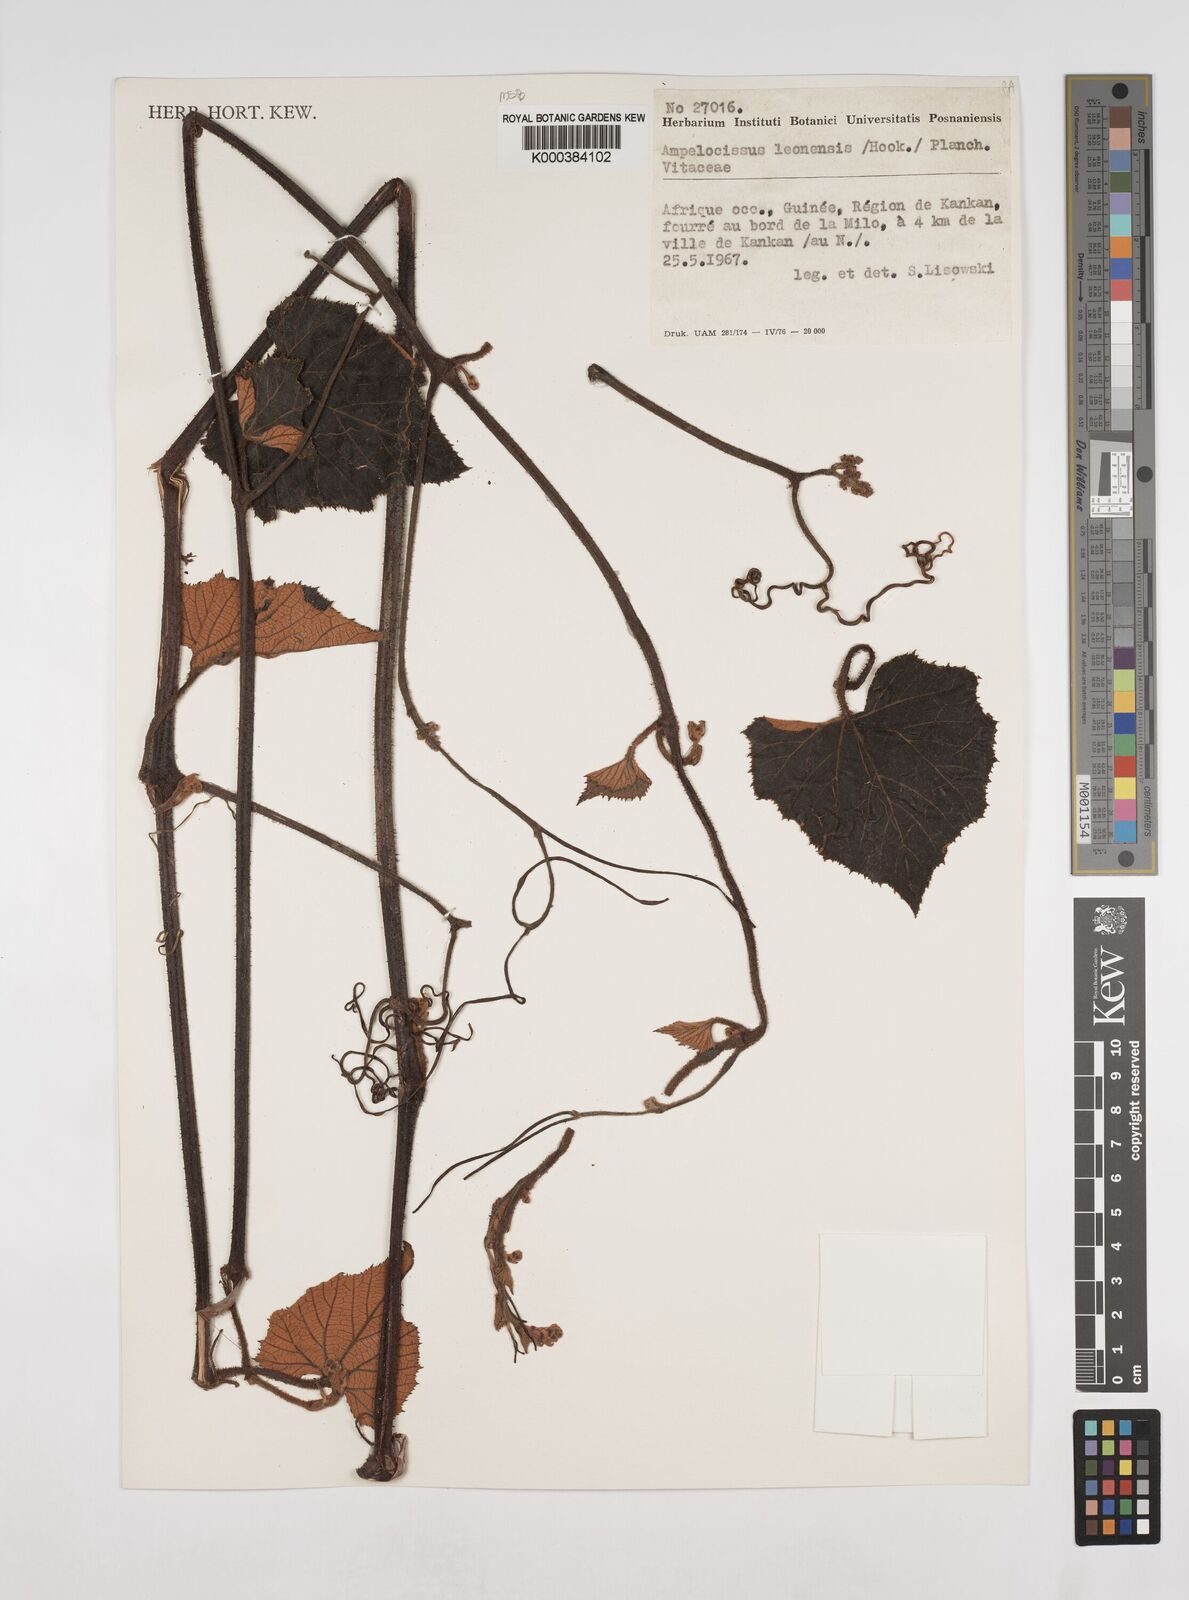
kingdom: Plantae
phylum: Tracheophyta
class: Magnoliopsida
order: Vitales
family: Vitaceae
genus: Ampelocissus
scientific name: Ampelocissus leonensis
